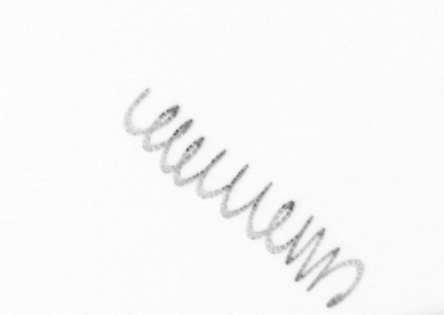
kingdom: Chromista
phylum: Ochrophyta
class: Bacillariophyceae
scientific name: Bacillariophyceae
